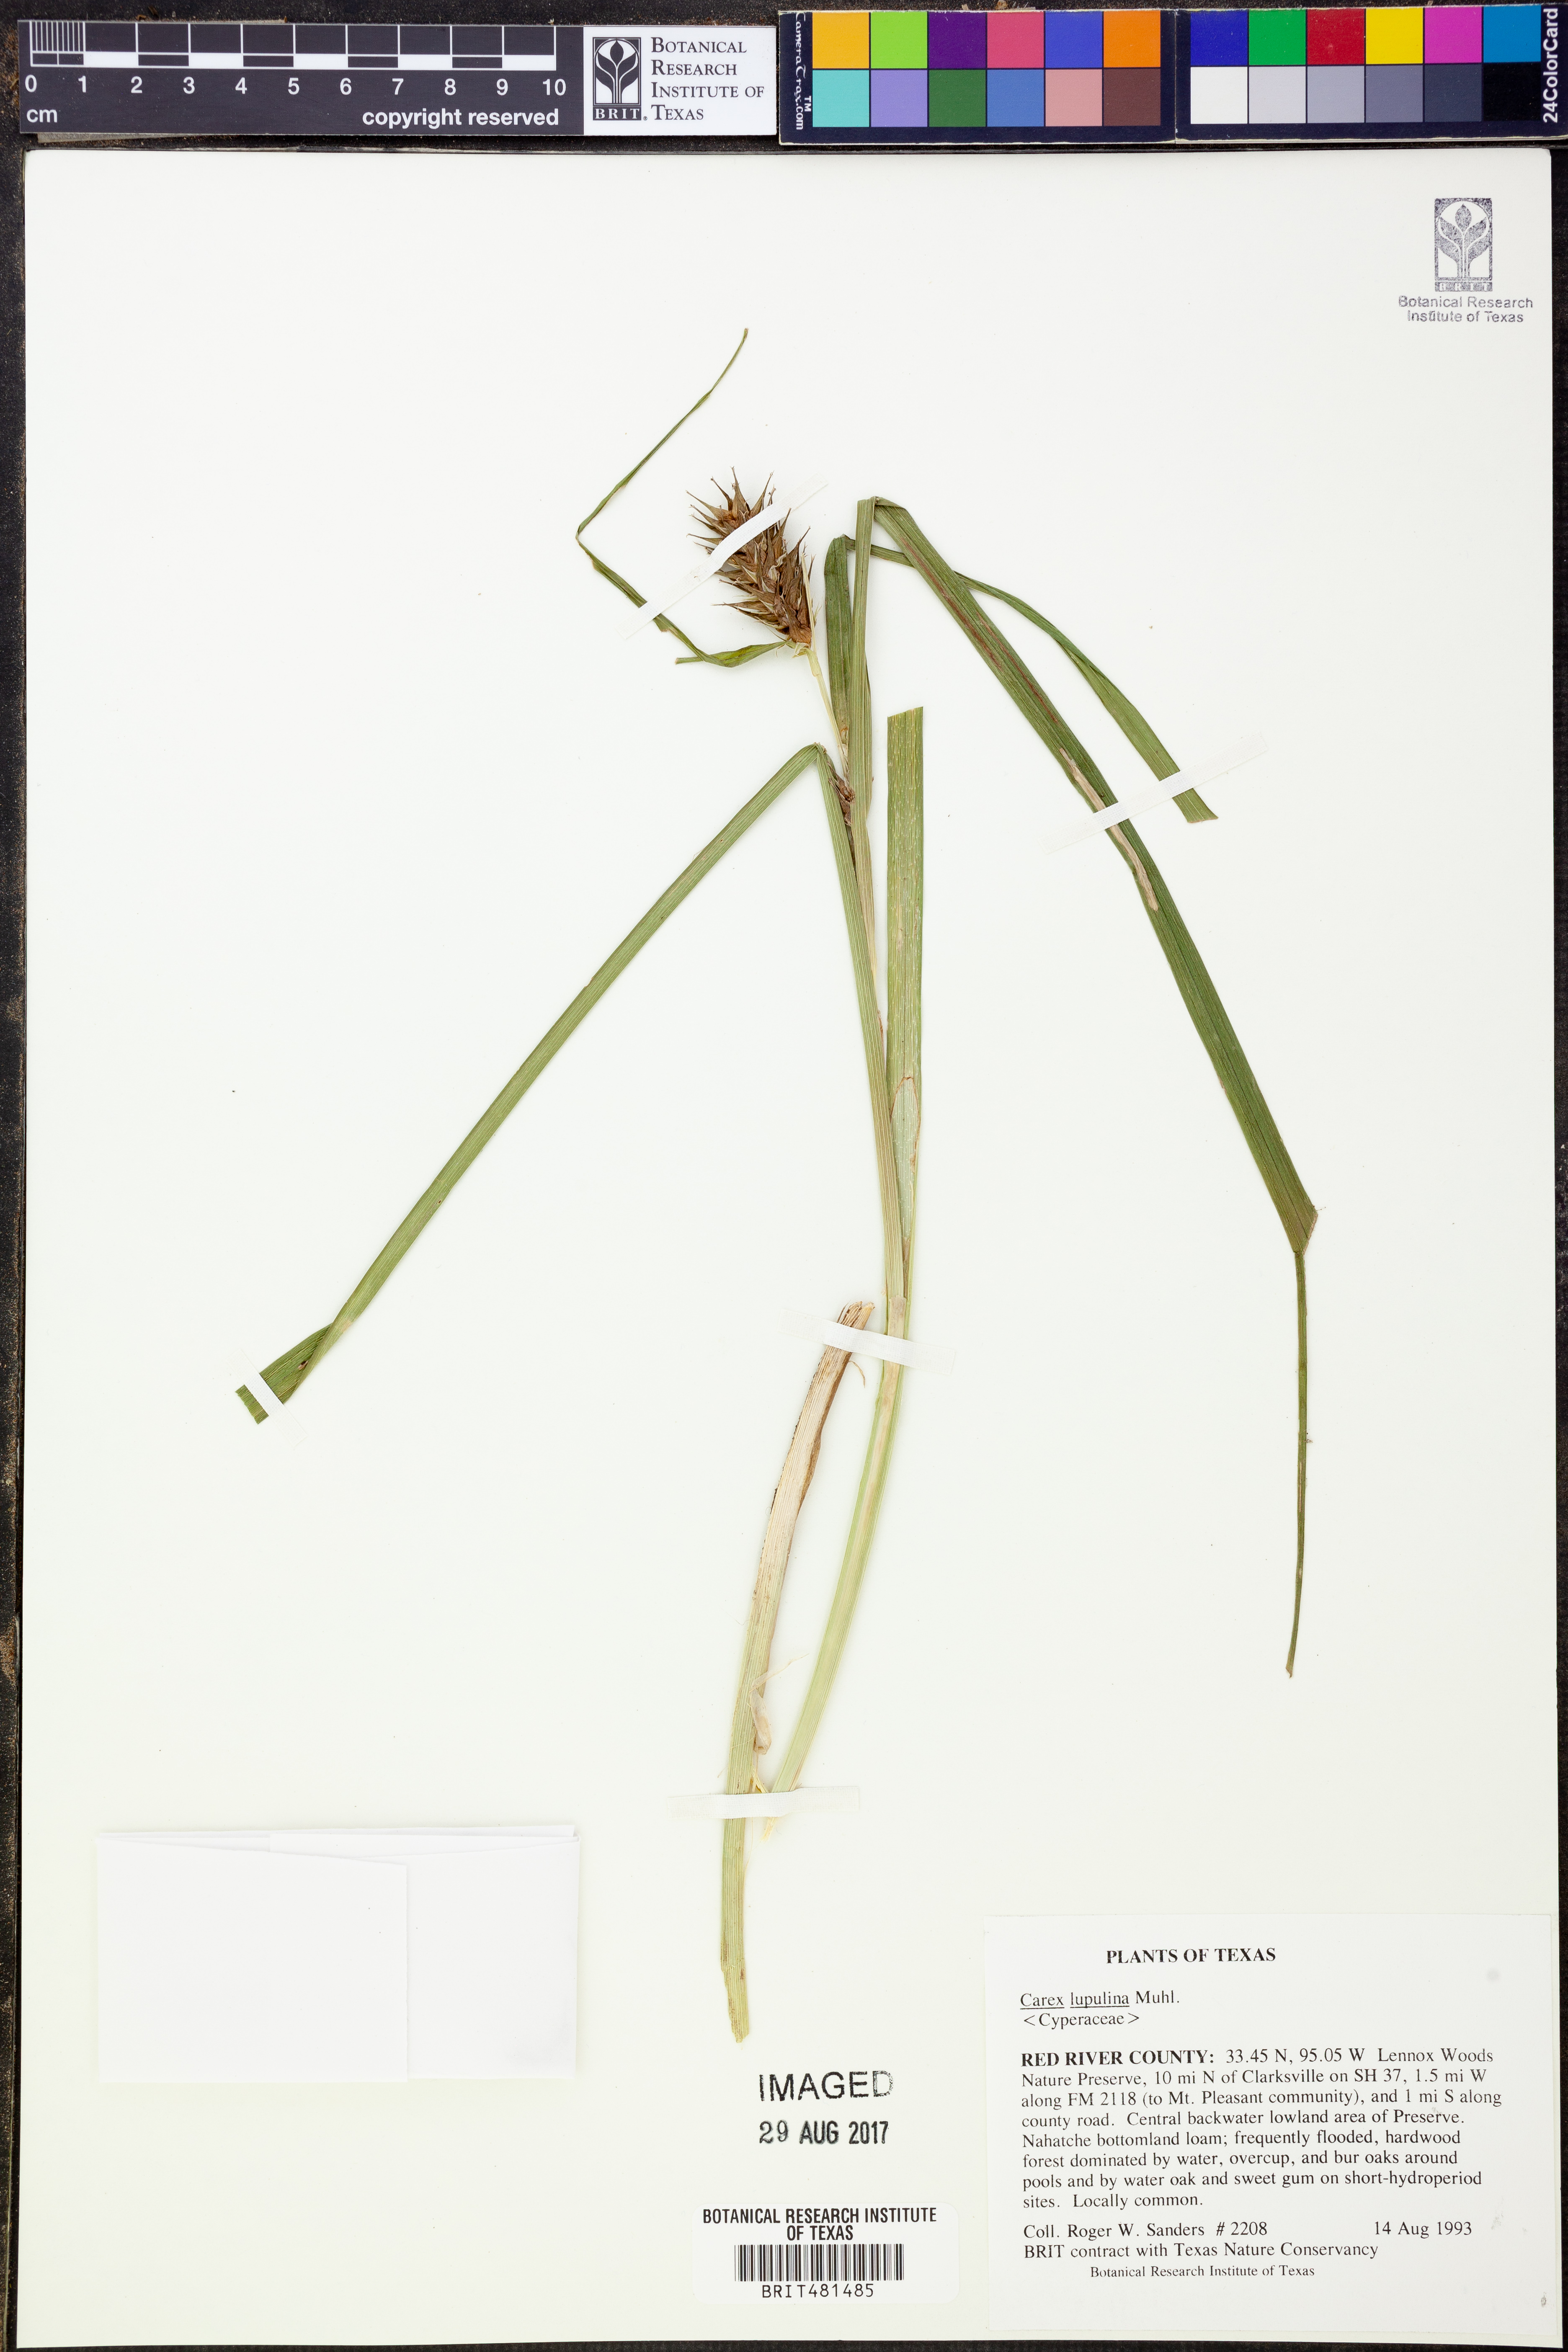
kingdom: Plantae
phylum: Tracheophyta
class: Liliopsida
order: Poales
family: Cyperaceae
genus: Carex
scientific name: Carex lupulina
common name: Hop sedge
